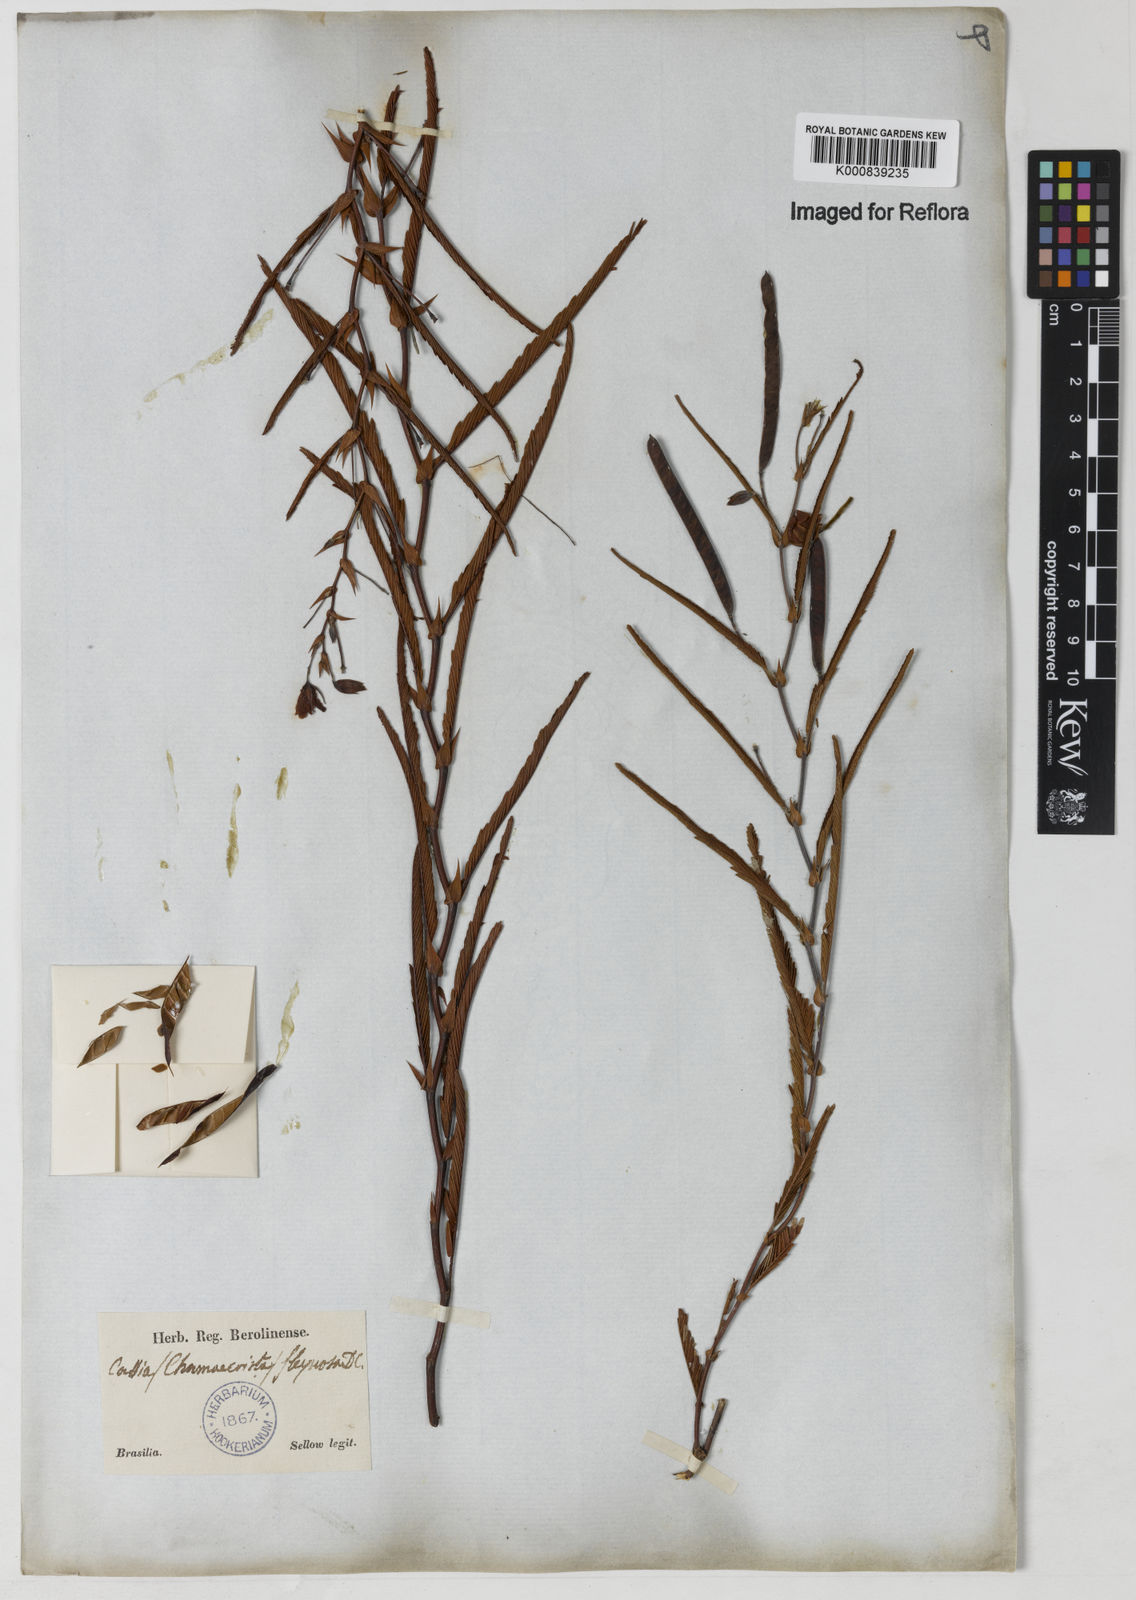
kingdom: Plantae
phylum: Tracheophyta
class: Magnoliopsida
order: Fabales
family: Fabaceae
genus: Chamaecrista
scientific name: Chamaecrista flexuosa
